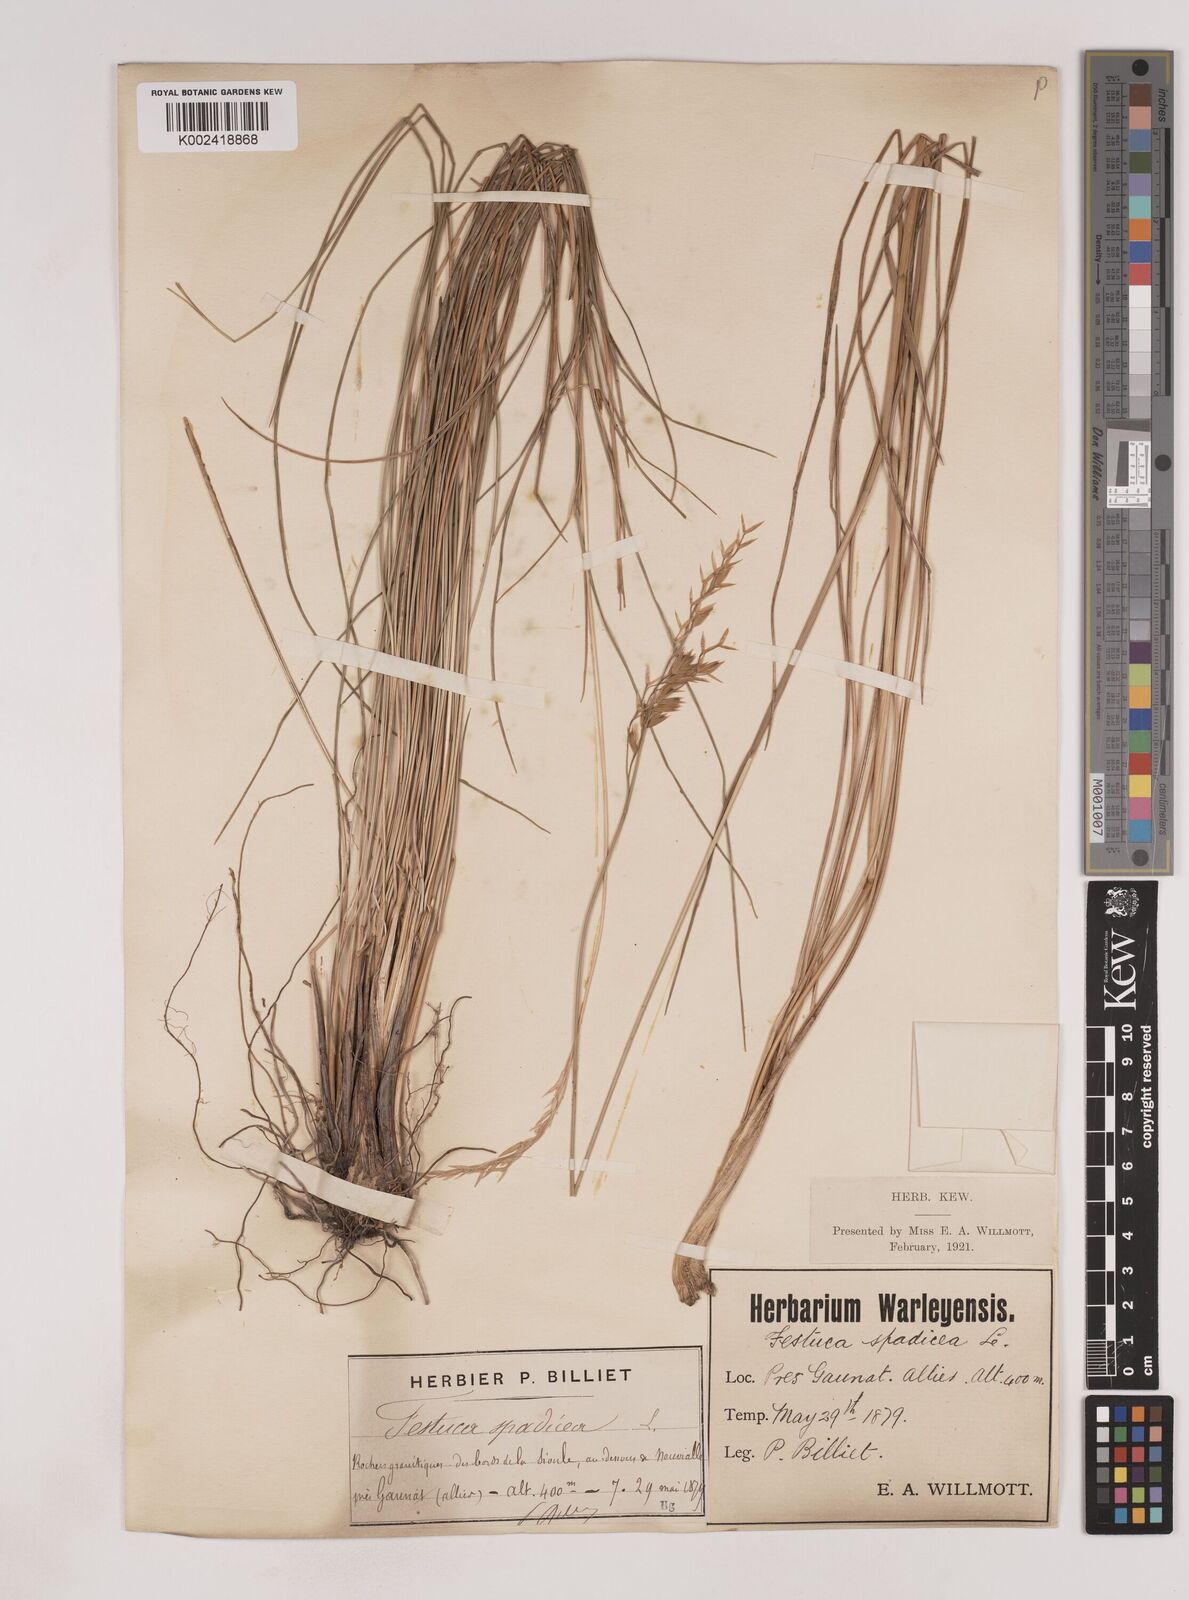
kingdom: Plantae
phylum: Tracheophyta
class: Liliopsida
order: Poales
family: Poaceae
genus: Patzkea
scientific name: Patzkea paniculata
